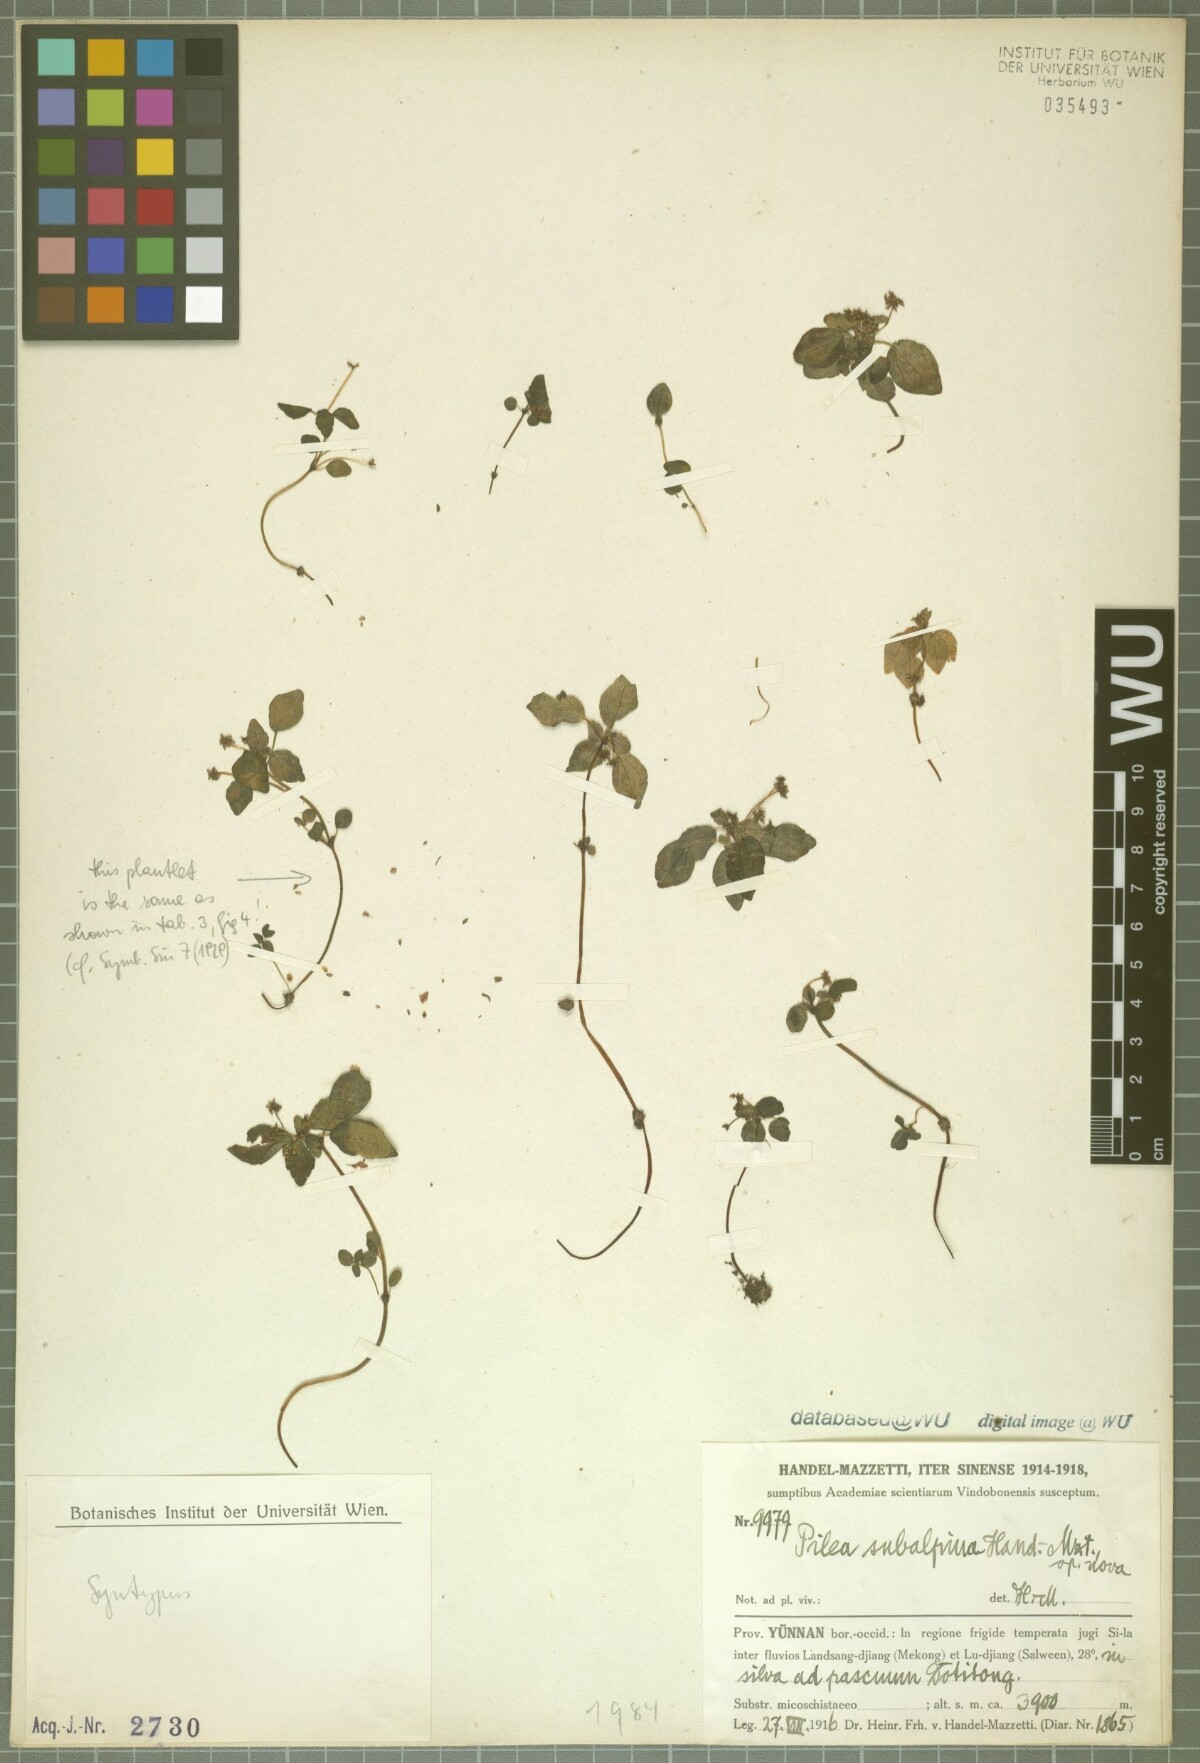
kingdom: Plantae
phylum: Tracheophyta
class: Magnoliopsida
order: Rosales
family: Urticaceae
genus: Pilea
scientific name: Pilea racemosa
